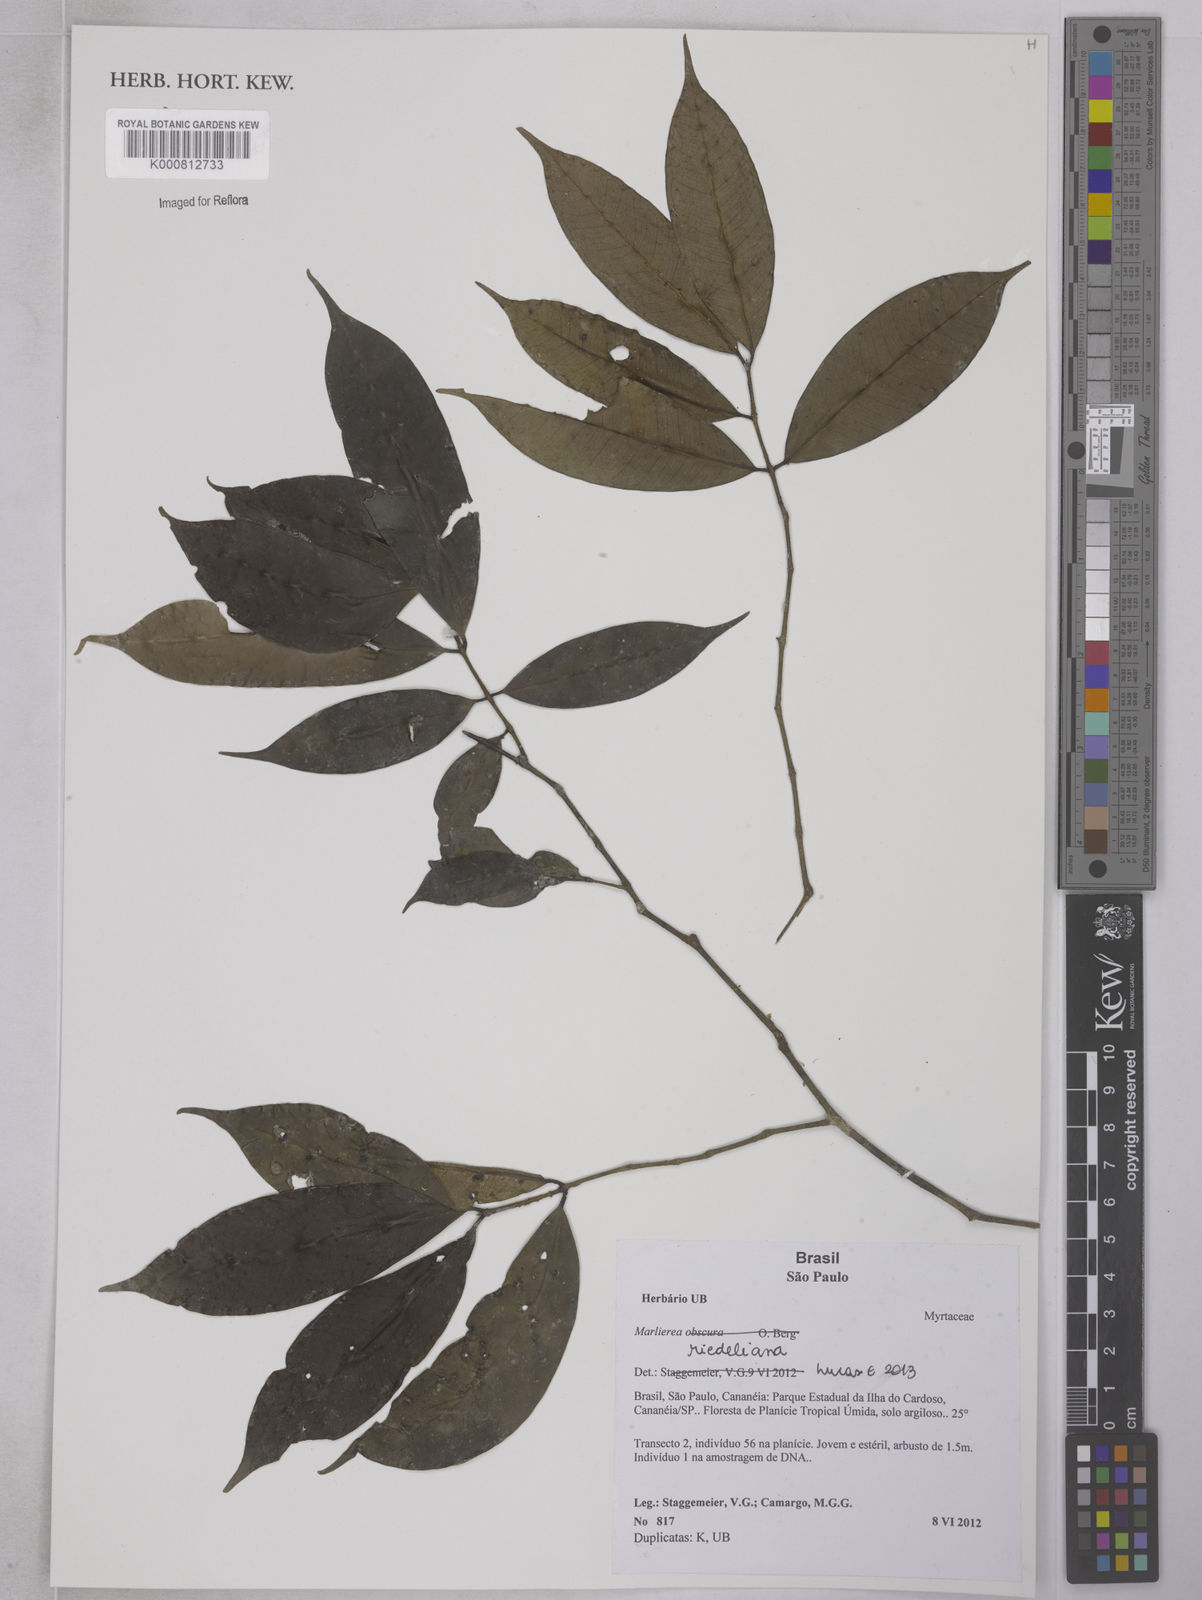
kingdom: Plantae
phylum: Tracheophyta
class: Magnoliopsida
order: Myrtales
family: Myrtaceae
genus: Myrcia
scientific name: Myrcia neoriedeliana
